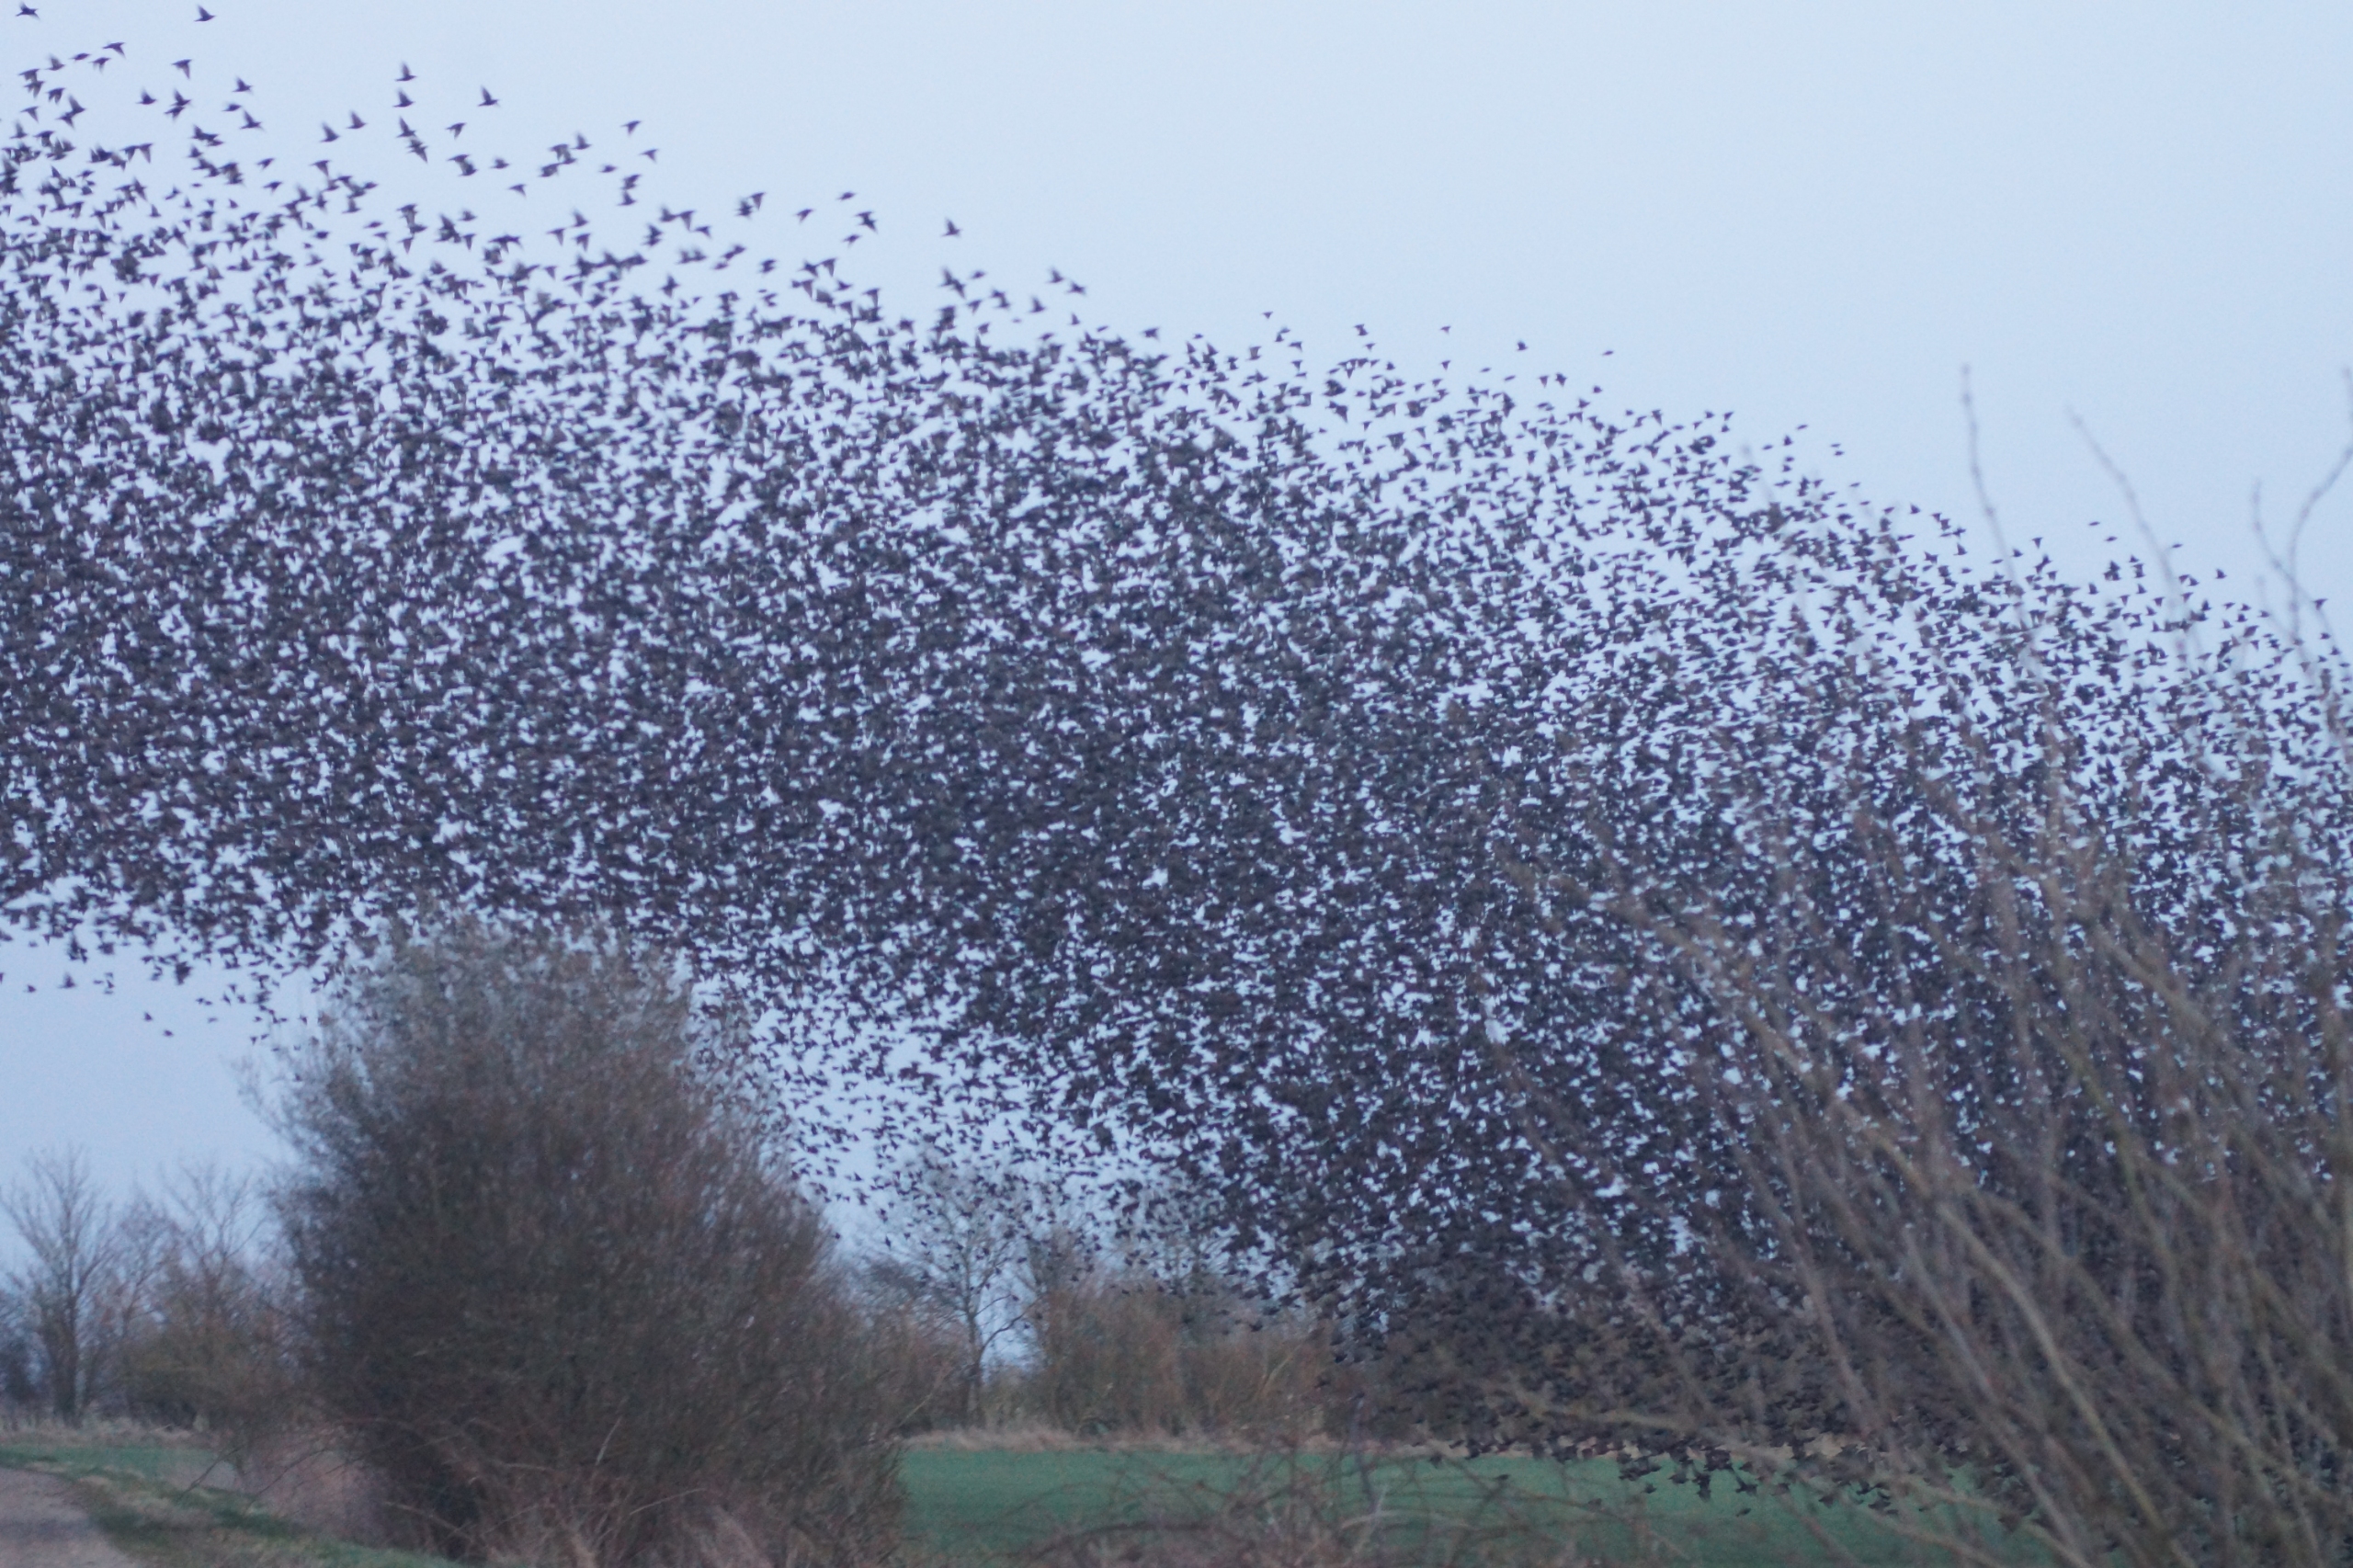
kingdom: Animalia
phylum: Chordata
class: Aves
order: Passeriformes
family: Sturnidae
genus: Sturnus
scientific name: Sturnus vulgaris
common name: Stær
